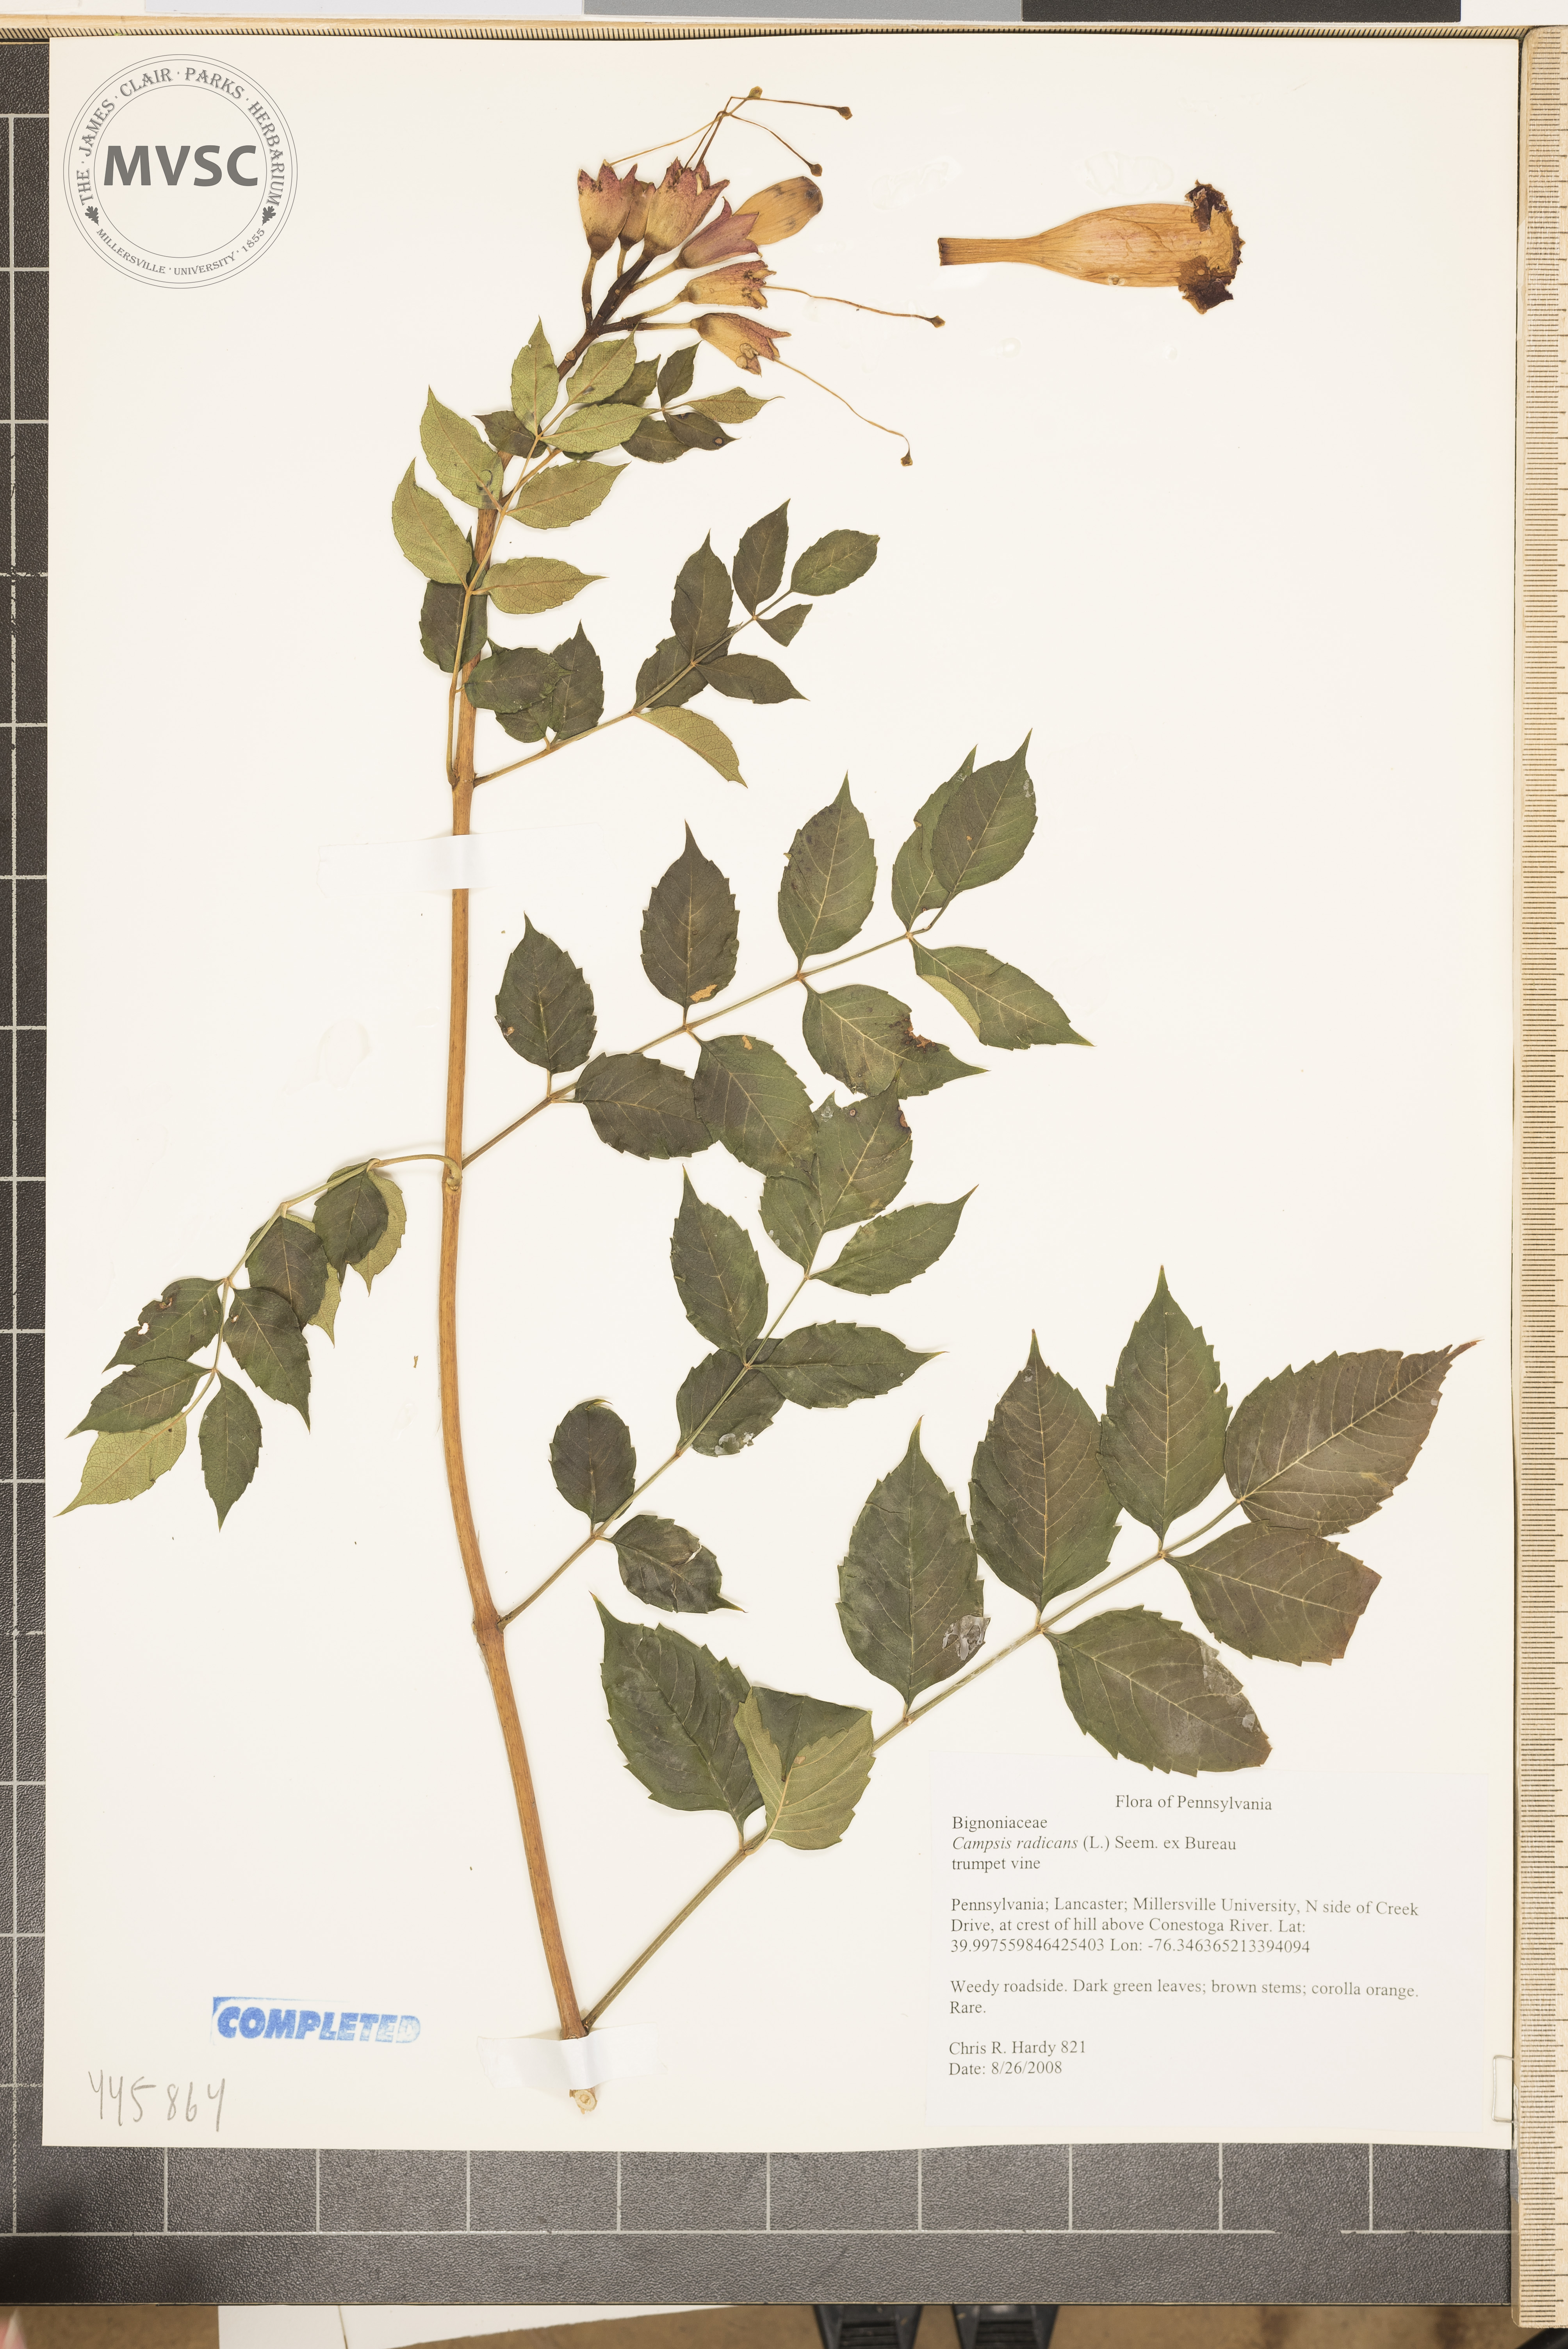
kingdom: Plantae
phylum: Tracheophyta
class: Magnoliopsida
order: Lamiales
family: Bignoniaceae
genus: Campsis
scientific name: Campsis radicans
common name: trumpet vine
